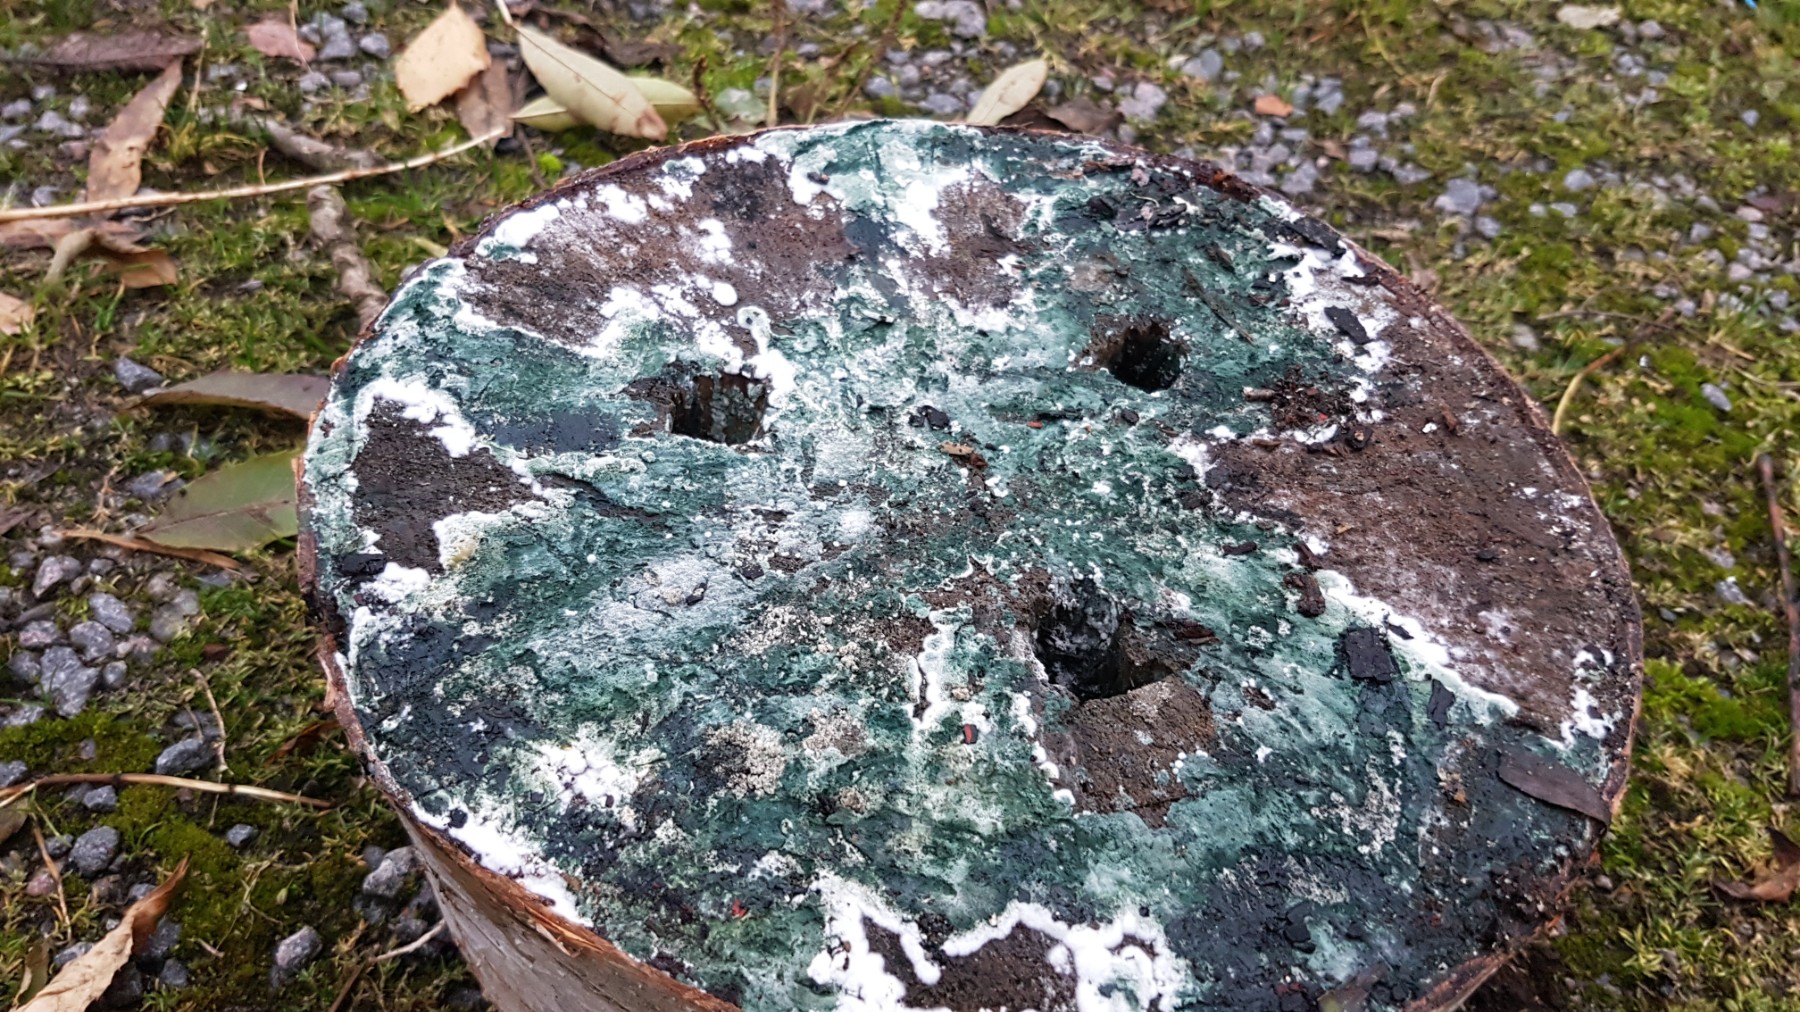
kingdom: Fungi
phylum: Ascomycota
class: Sordariomycetes
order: Hypocreales
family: Hypocreaceae
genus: Trichoderma
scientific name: Trichoderma
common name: kødkerne
